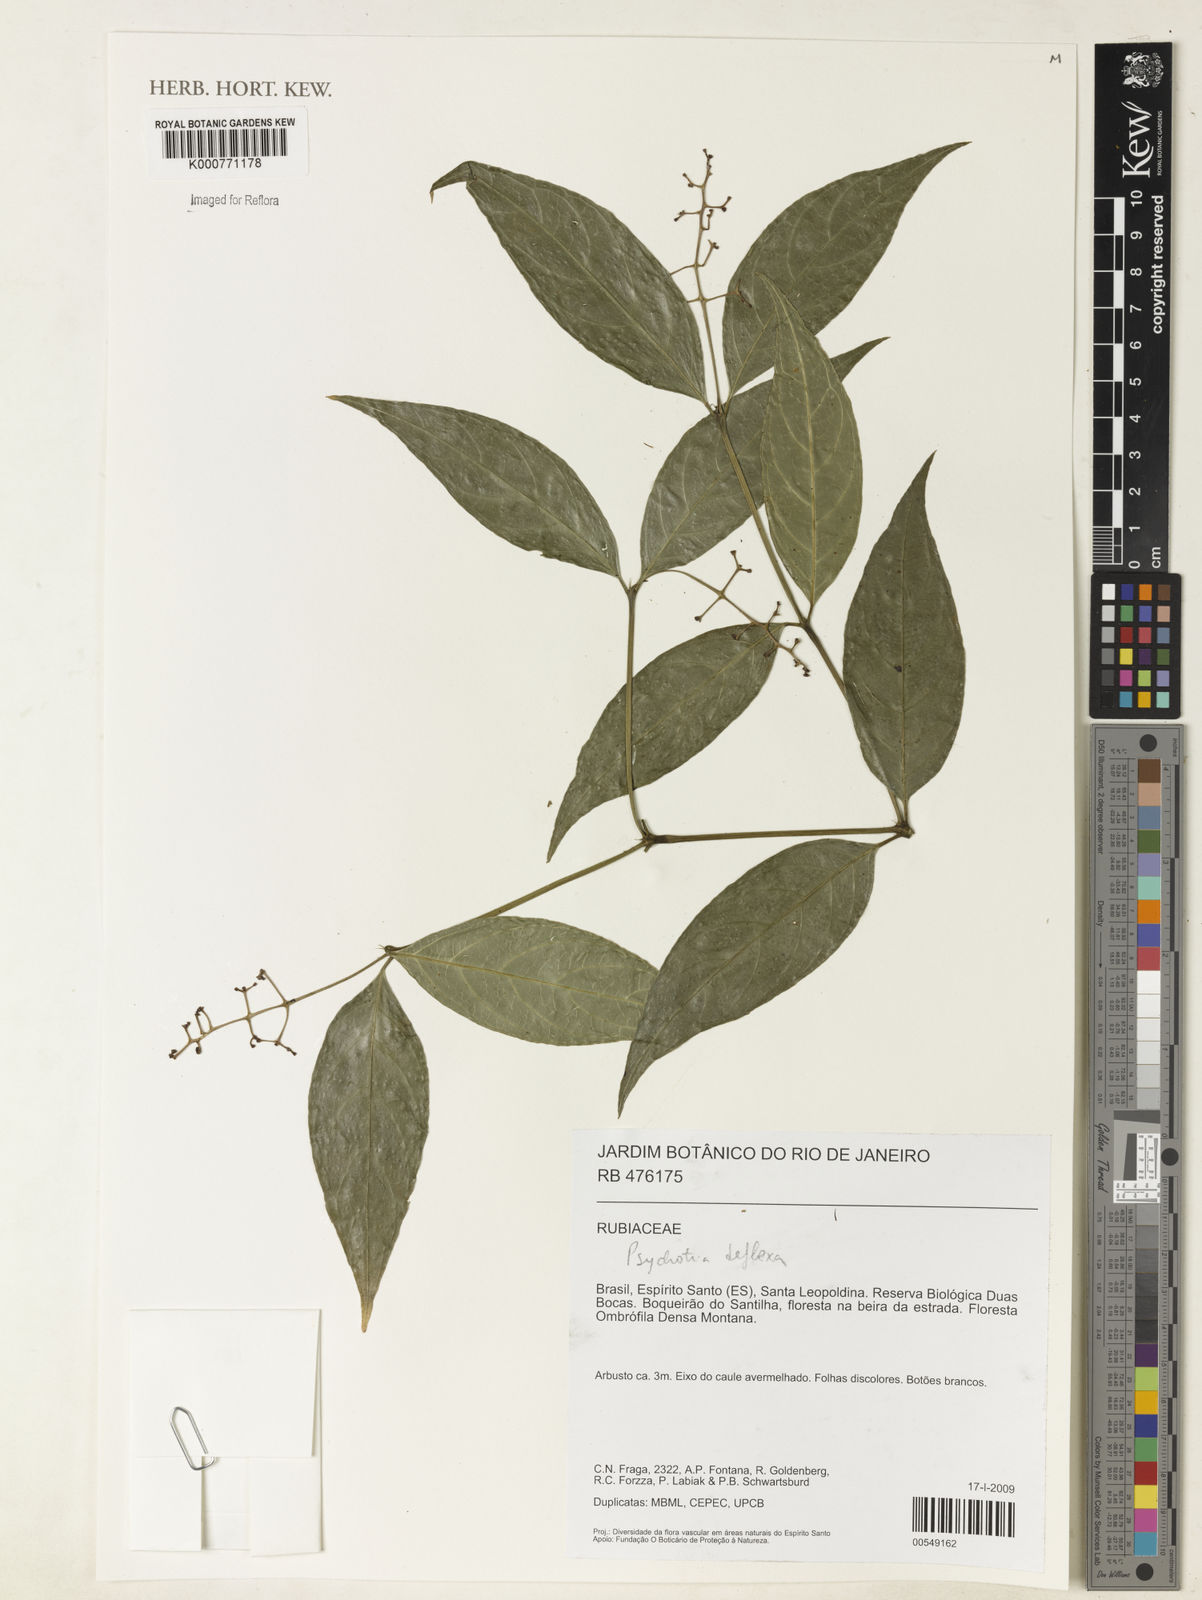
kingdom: Plantae
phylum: Tracheophyta
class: Magnoliopsida
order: Gentianales
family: Rubiaceae
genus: Palicourea
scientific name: Palicourea deflexa
